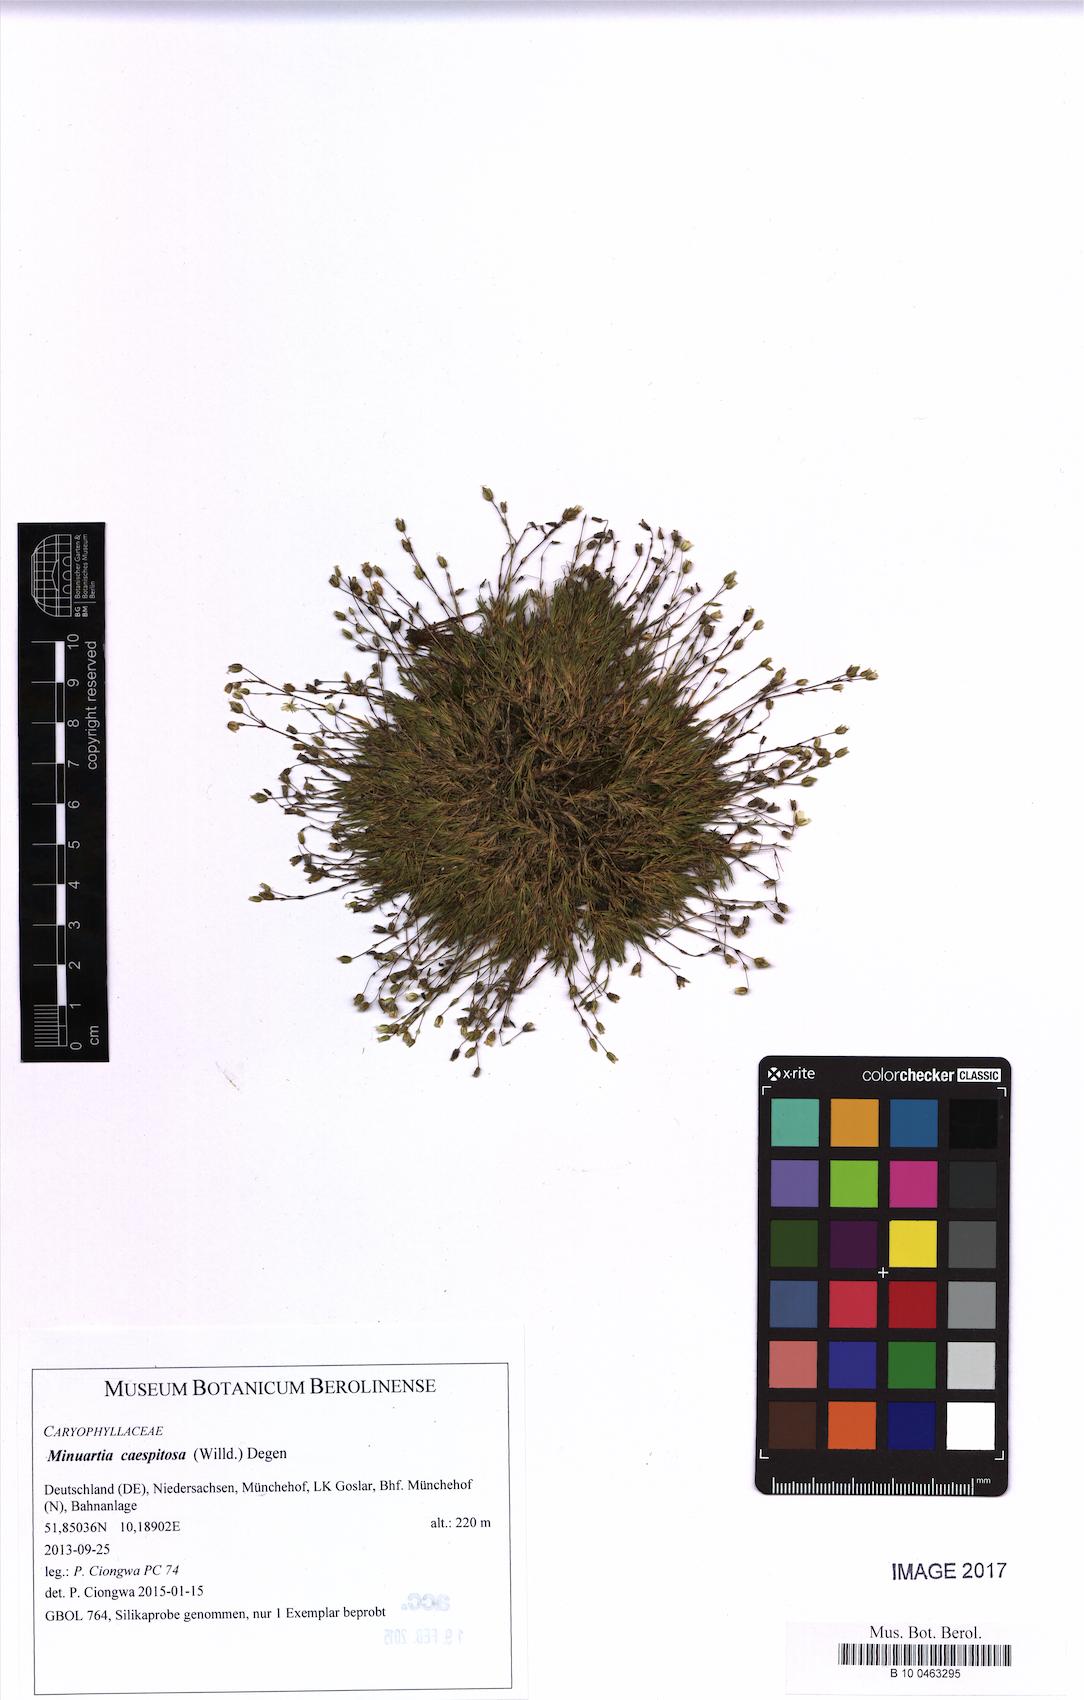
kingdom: Plantae
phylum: Tracheophyta
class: Magnoliopsida
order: Caryophyllales
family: Caryophyllaceae
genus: Sabulina
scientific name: Sabulina caespitosa
